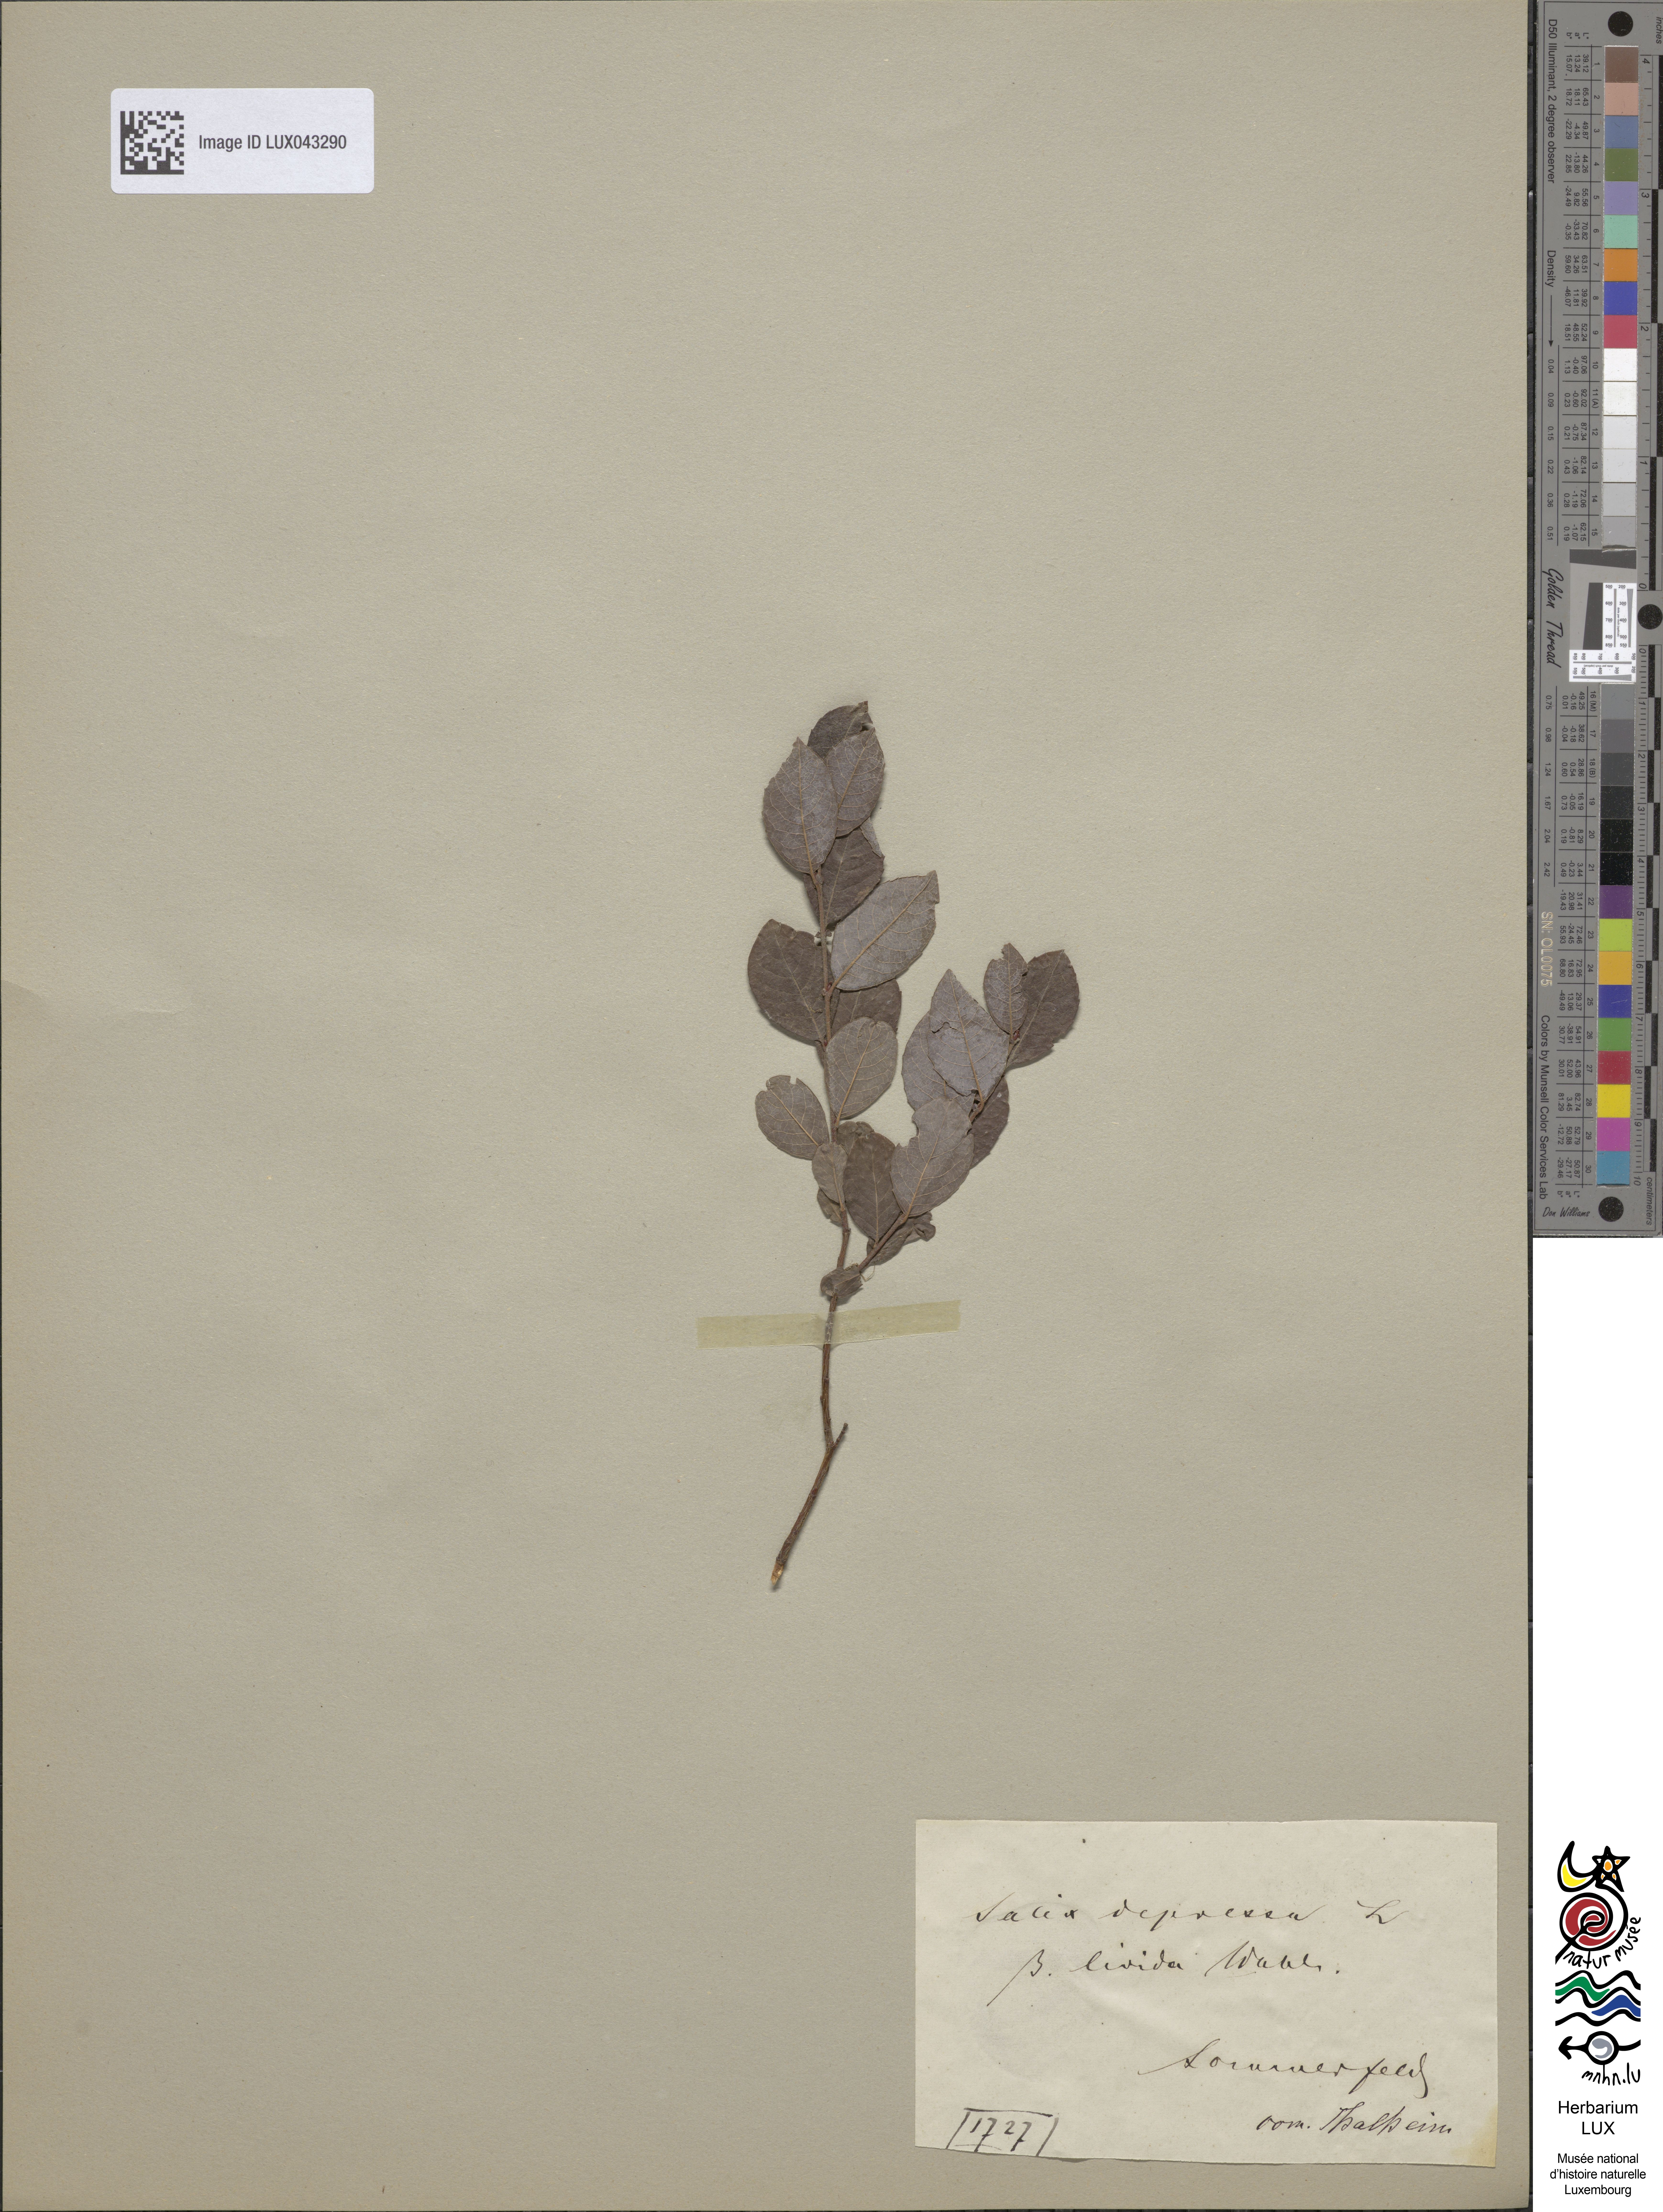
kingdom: Plantae
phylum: Tracheophyta
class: Magnoliopsida
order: Malpighiales
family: Salicaceae
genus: Salix
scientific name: Salix starkeana
